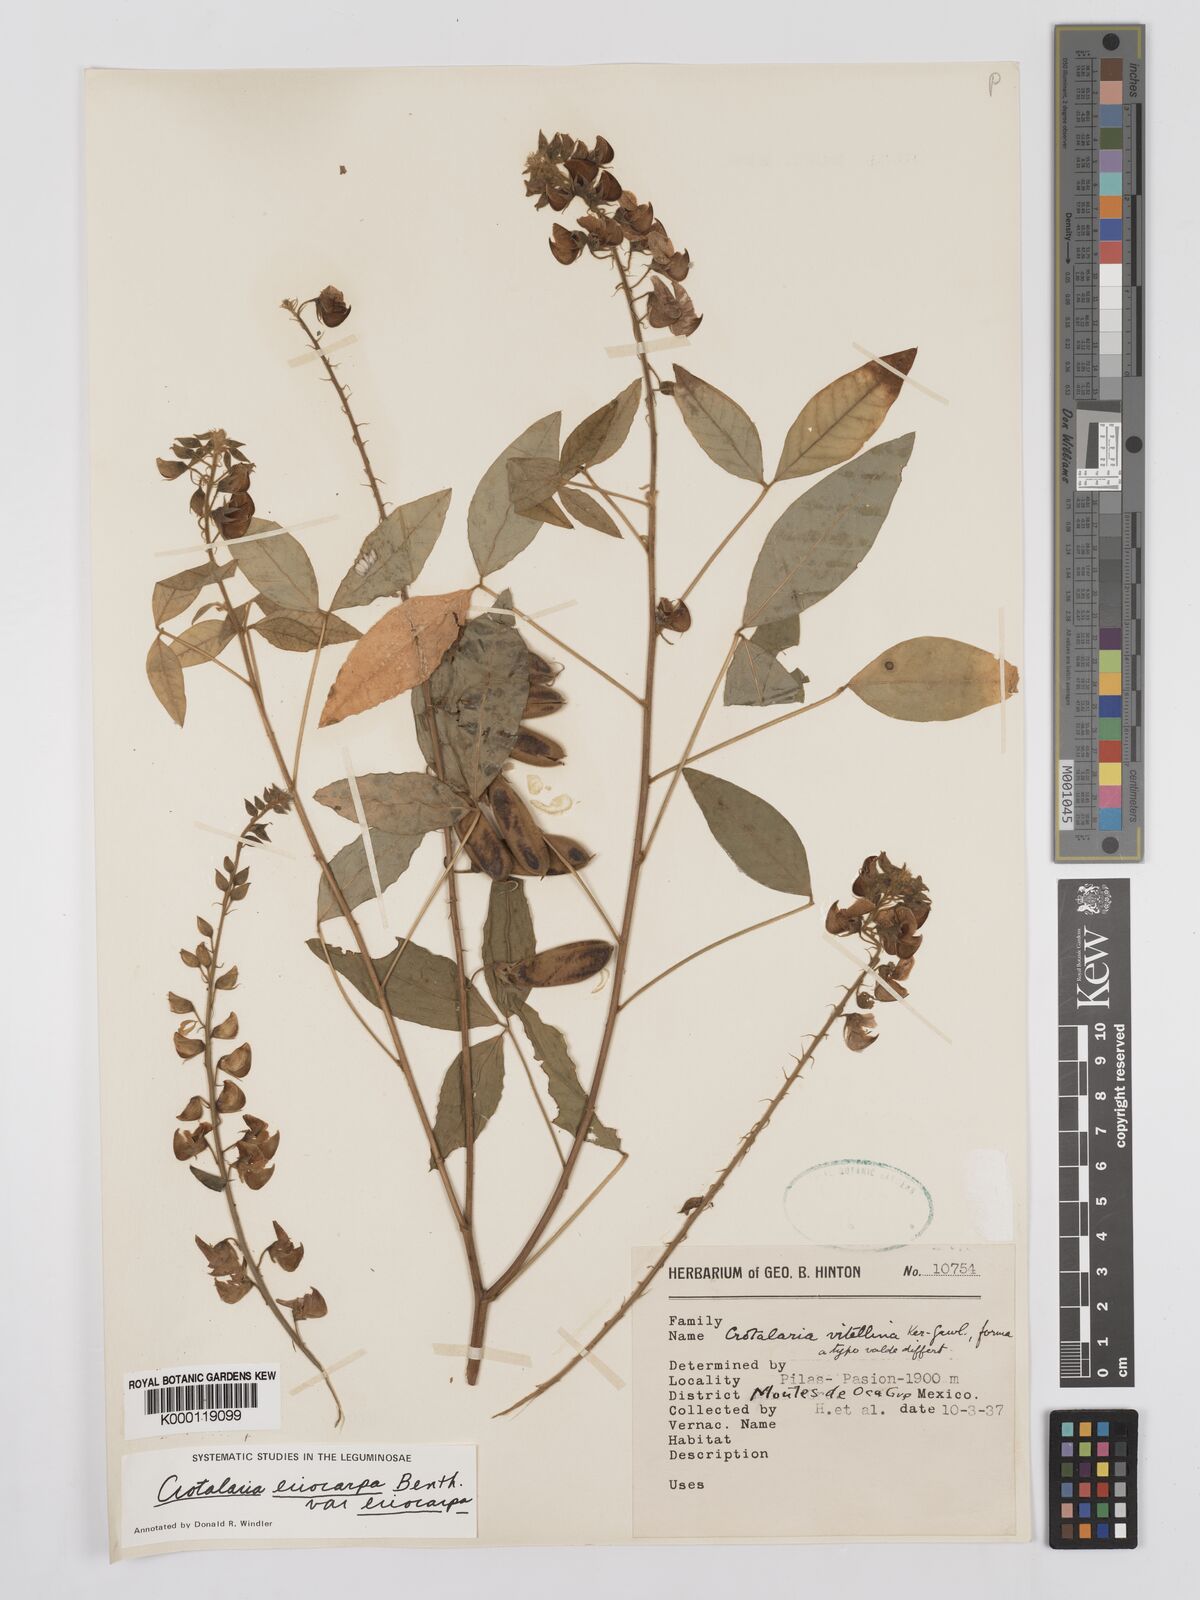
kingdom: Plantae
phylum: Tracheophyta
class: Magnoliopsida
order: Fabales
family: Fabaceae
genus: Crotalaria
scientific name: Crotalaria eriocarpa
